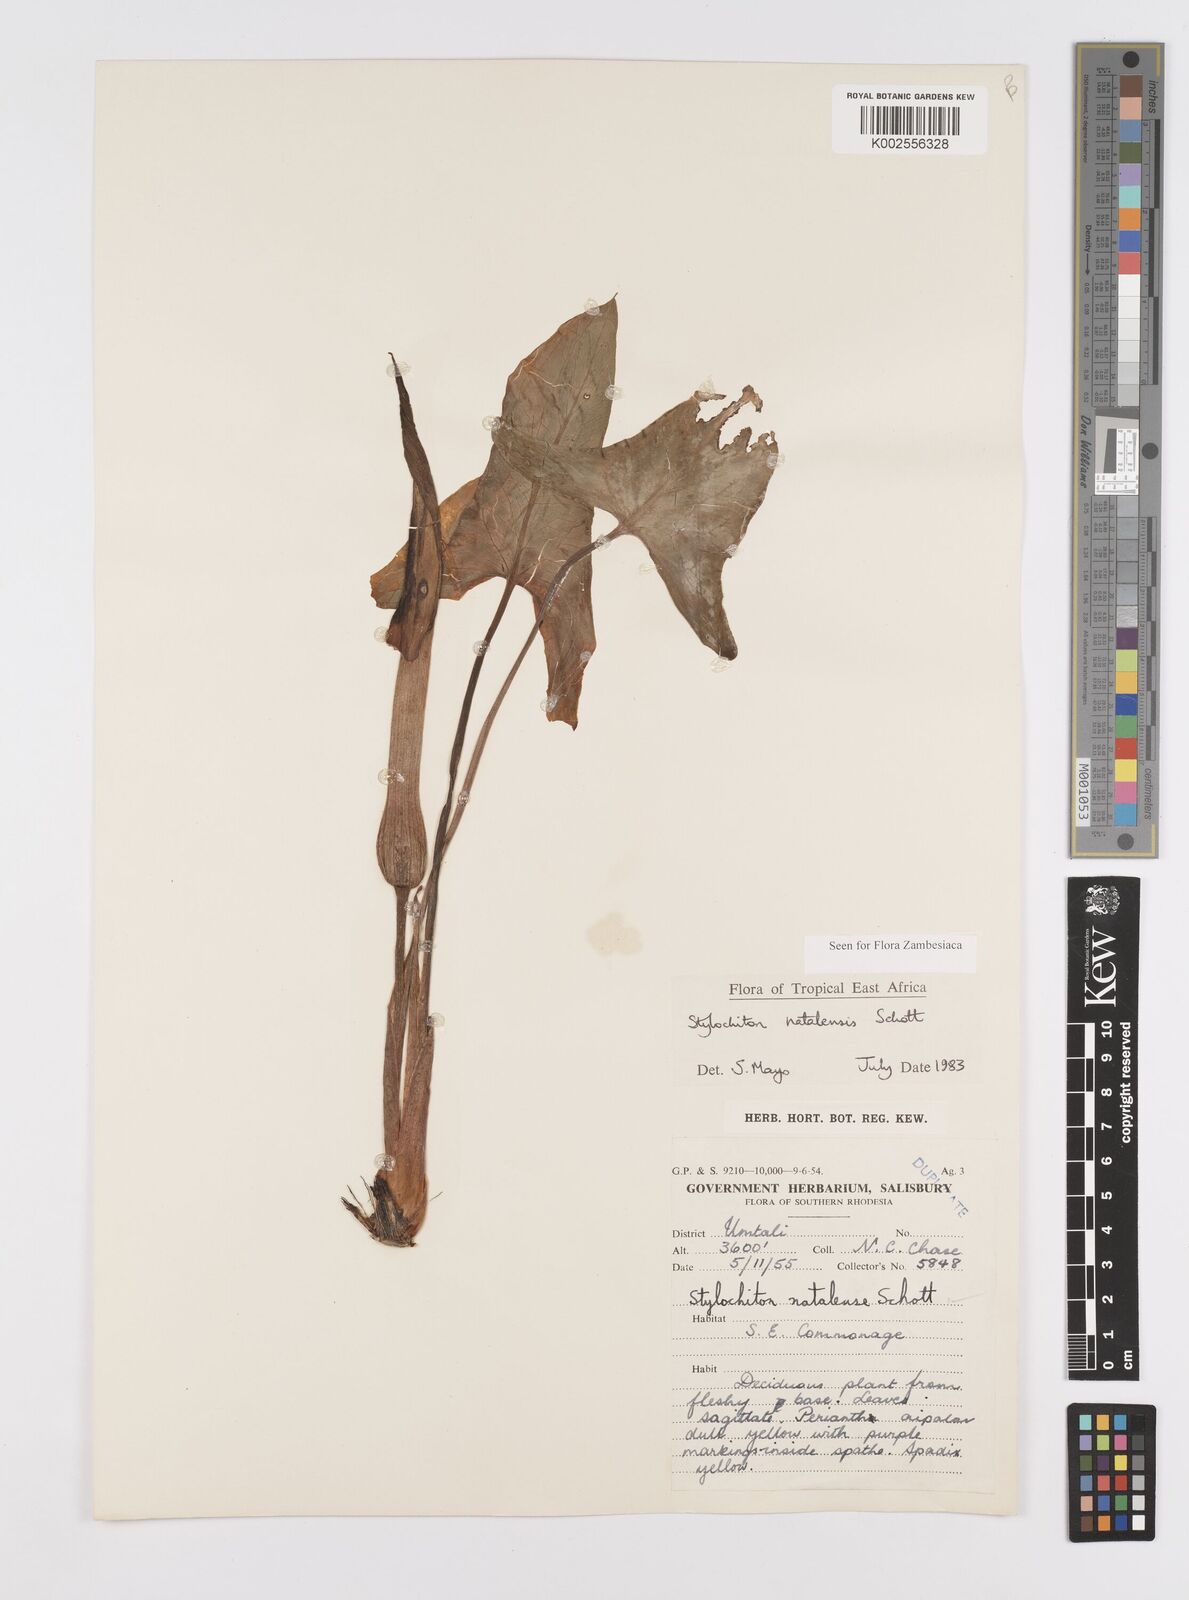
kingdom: Plantae
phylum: Tracheophyta
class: Liliopsida
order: Alismatales
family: Araceae
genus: Stylochaeton
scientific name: Stylochaeton natalense
